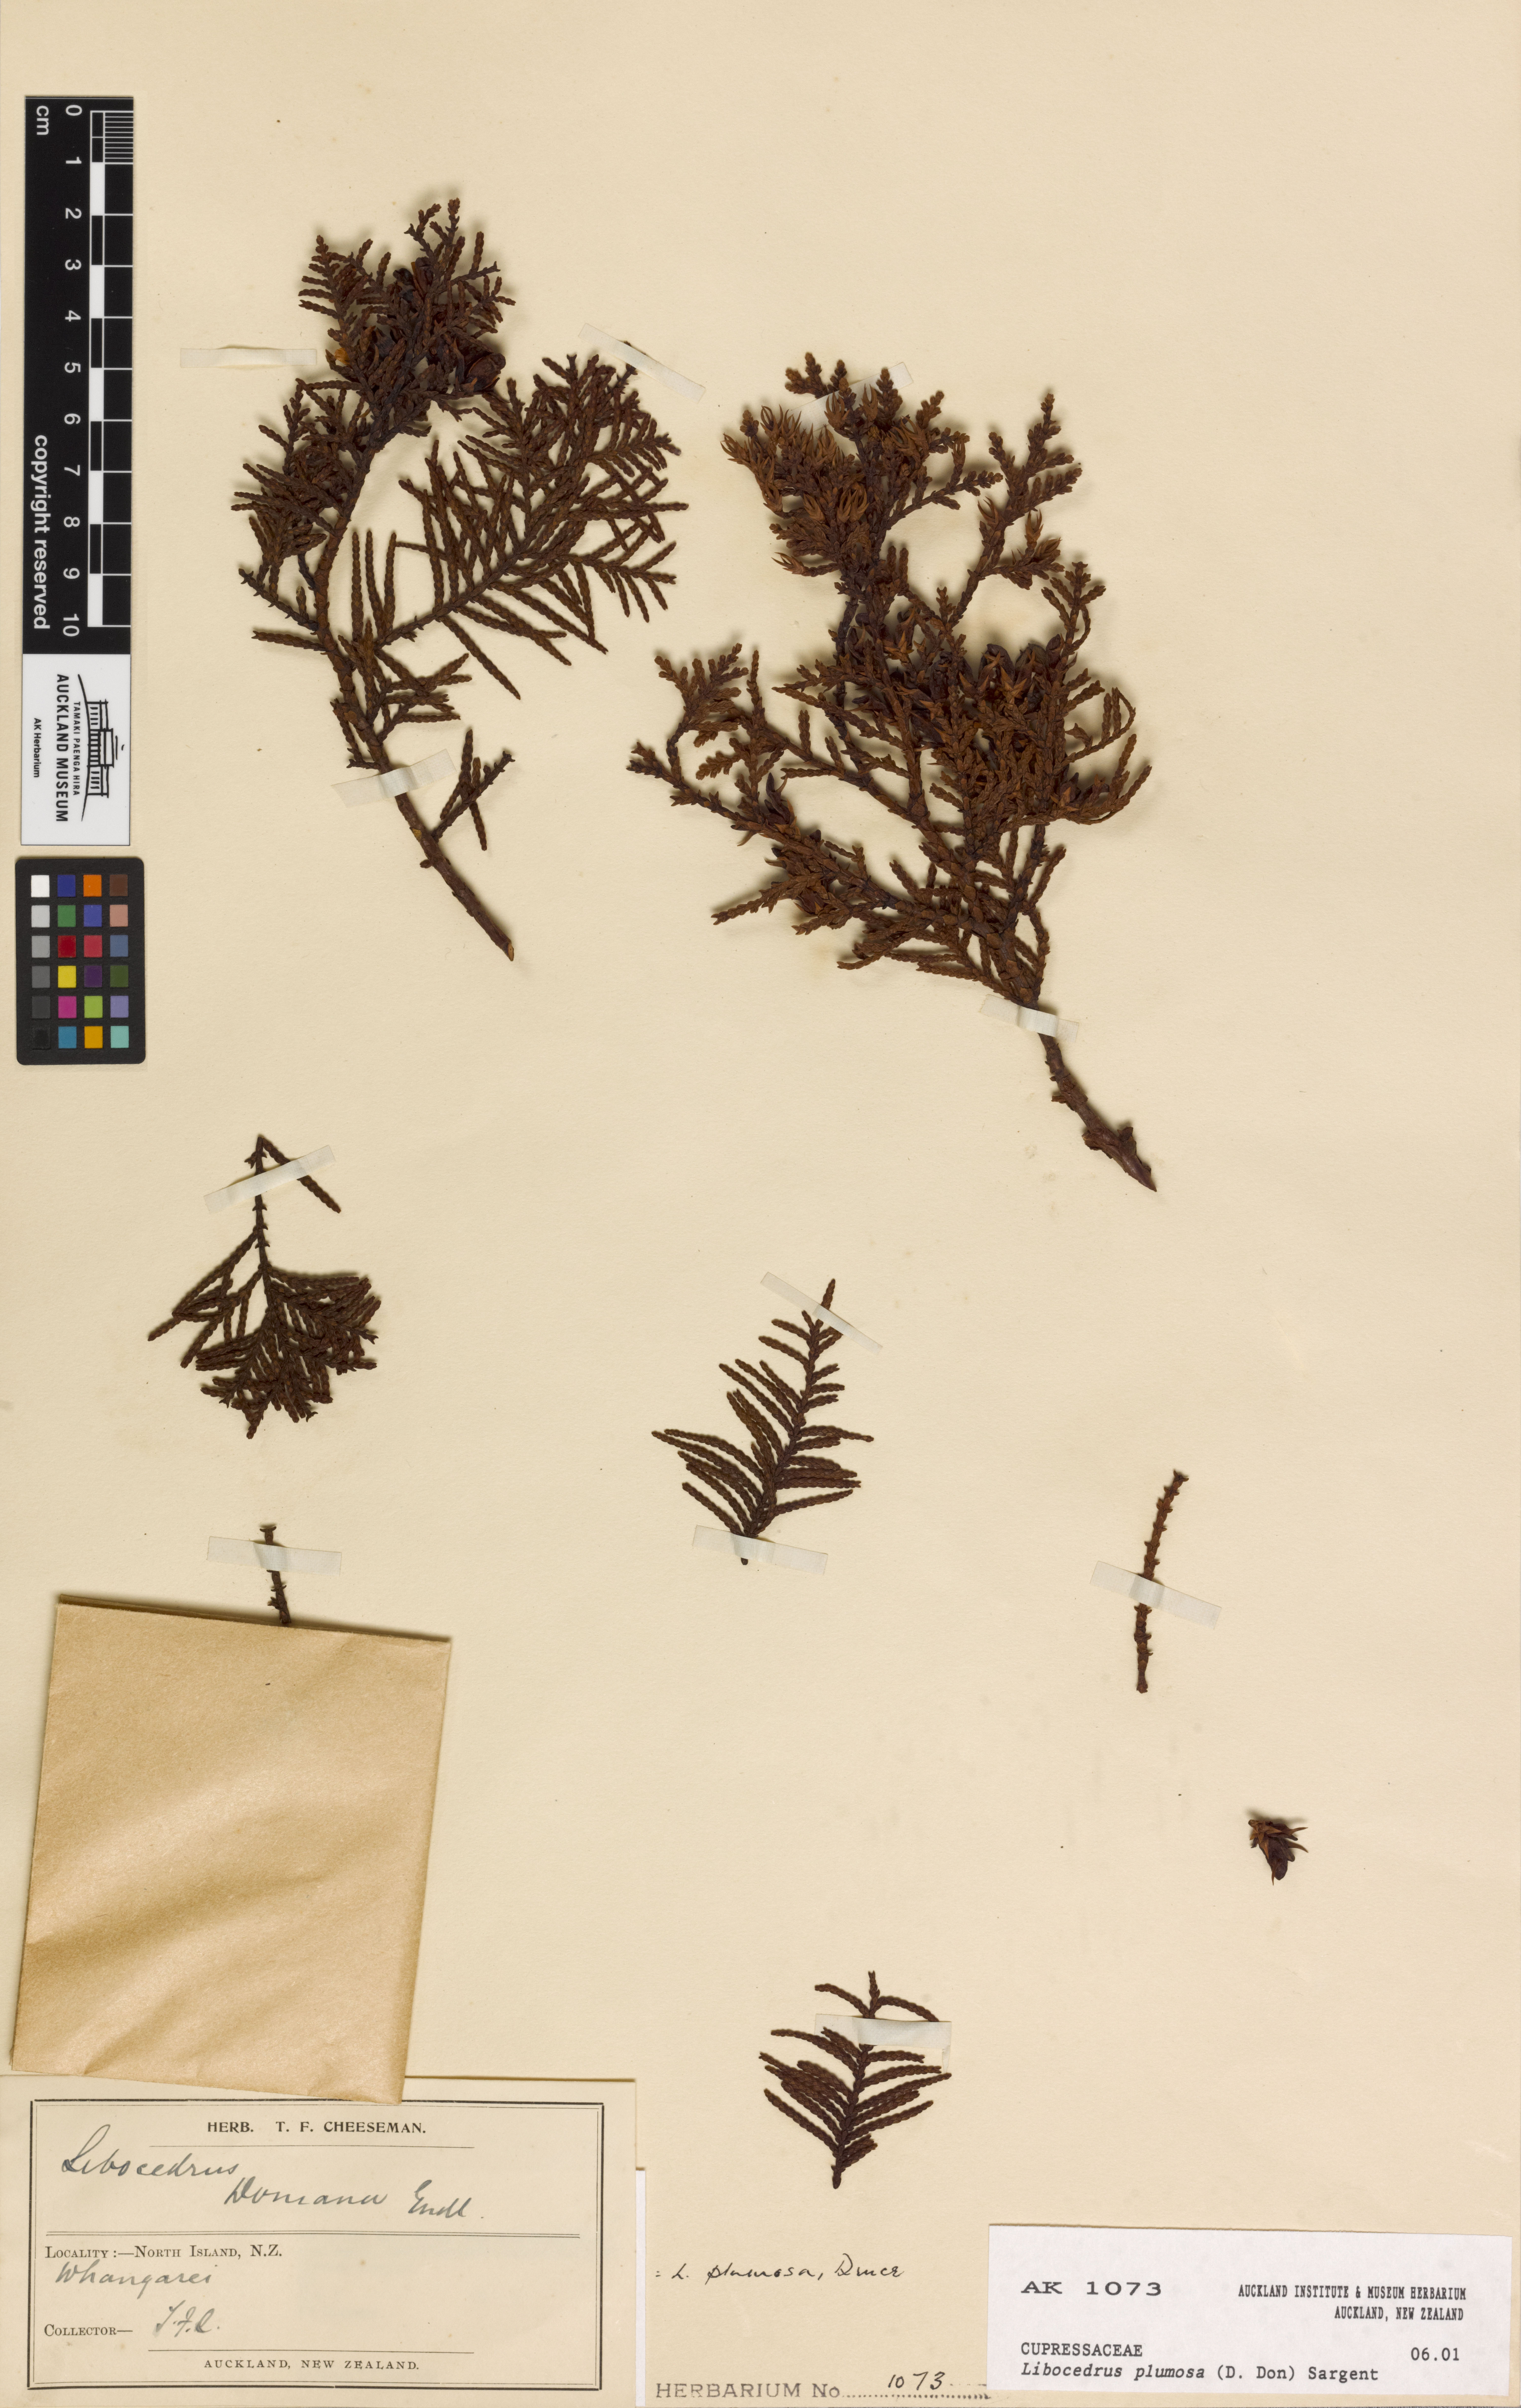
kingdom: Plantae
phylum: Tracheophyta
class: Pinopsida
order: Pinales
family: Cupressaceae
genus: Libocedrus
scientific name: Libocedrus plumosa
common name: New zealand cedar
